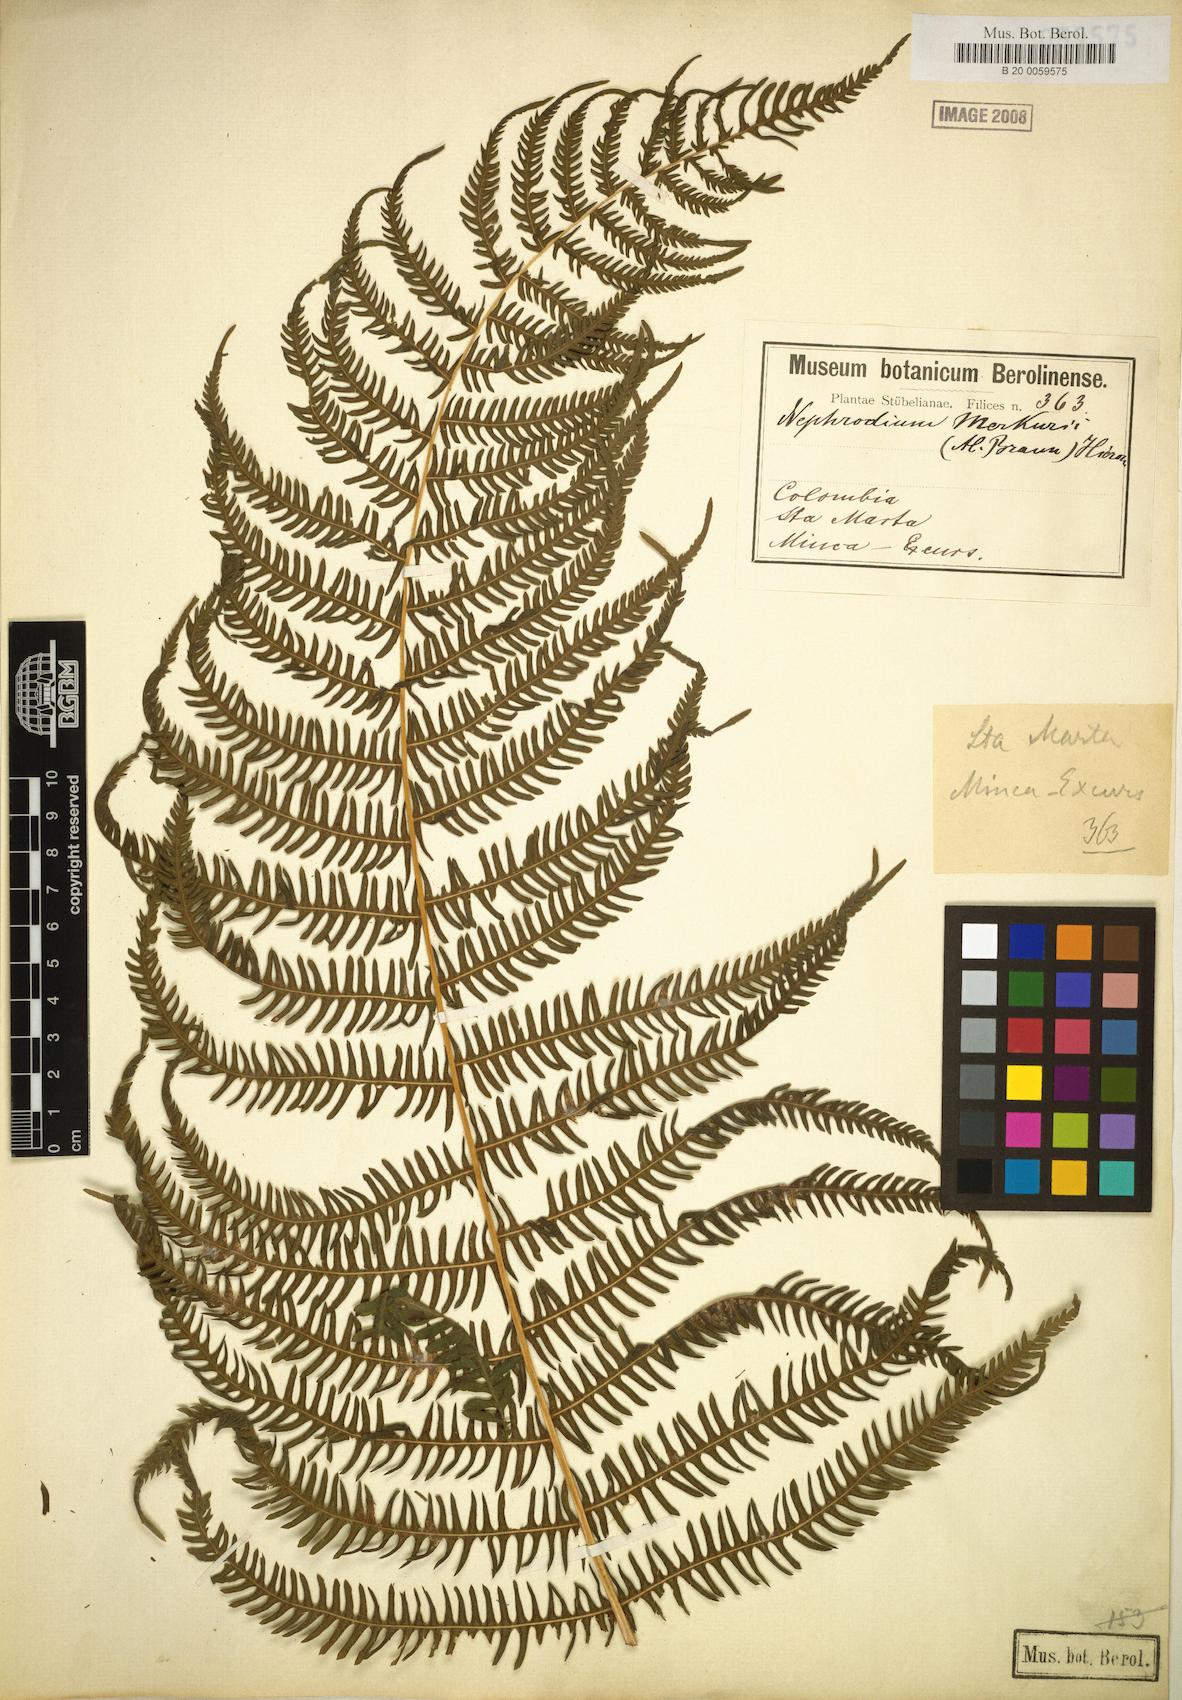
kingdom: Plantae
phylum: Tracheophyta
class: Polypodiopsida
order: Polypodiales
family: Thelypteridaceae
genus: Amauropelta
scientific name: Amauropelta balbisii
